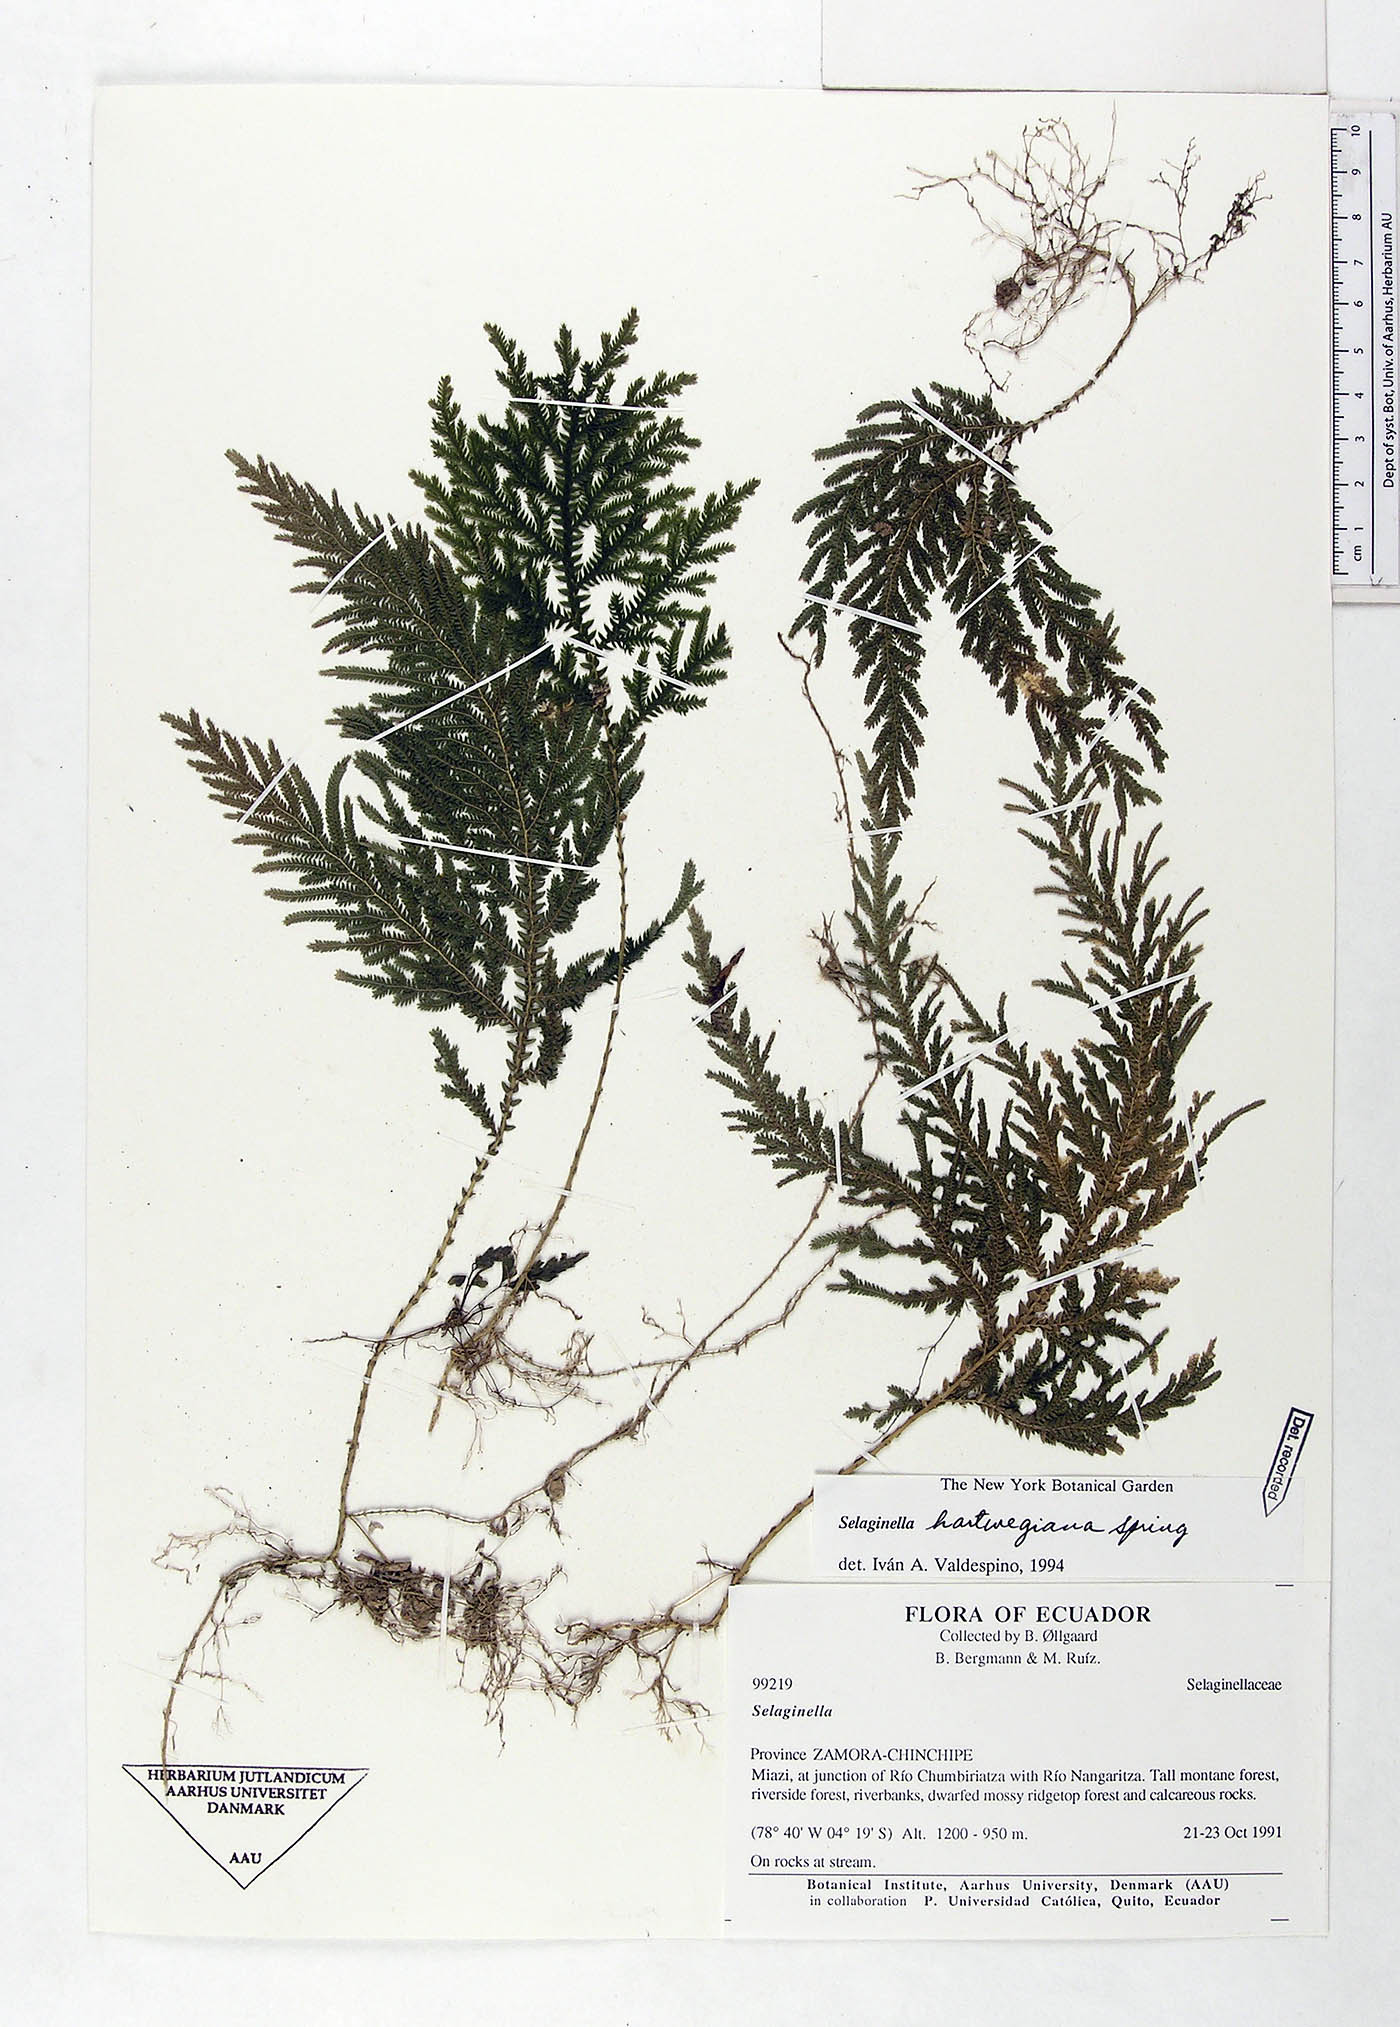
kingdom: Plantae
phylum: Tracheophyta
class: Lycopodiopsida
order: Selaginellales
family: Selaginellaceae
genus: Selaginella
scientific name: Selaginella hartwegiana
